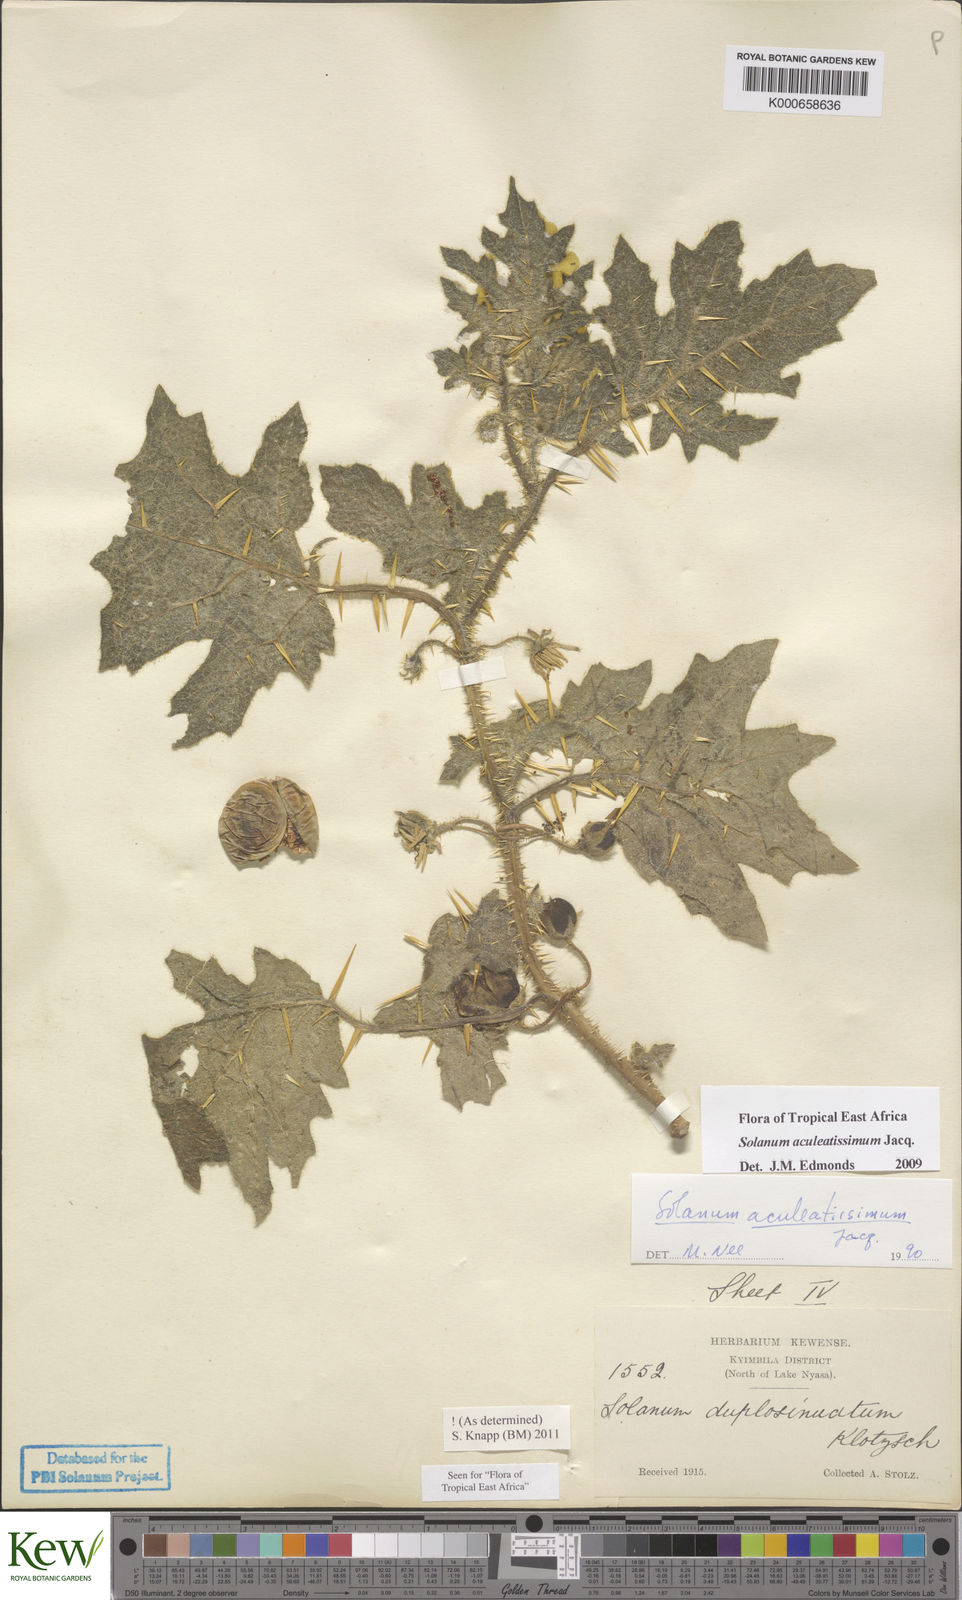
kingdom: Plantae
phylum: Tracheophyta
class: Magnoliopsida
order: Solanales
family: Solanaceae
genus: Solanum
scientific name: Solanum aculeatissimum
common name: Dutch eggplant
